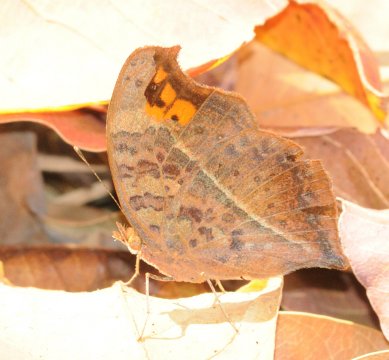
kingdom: Animalia
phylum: Arthropoda
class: Insecta
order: Lepidoptera
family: Nymphalidae
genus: Junonia
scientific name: Junonia antilope
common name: Darker Commodore
